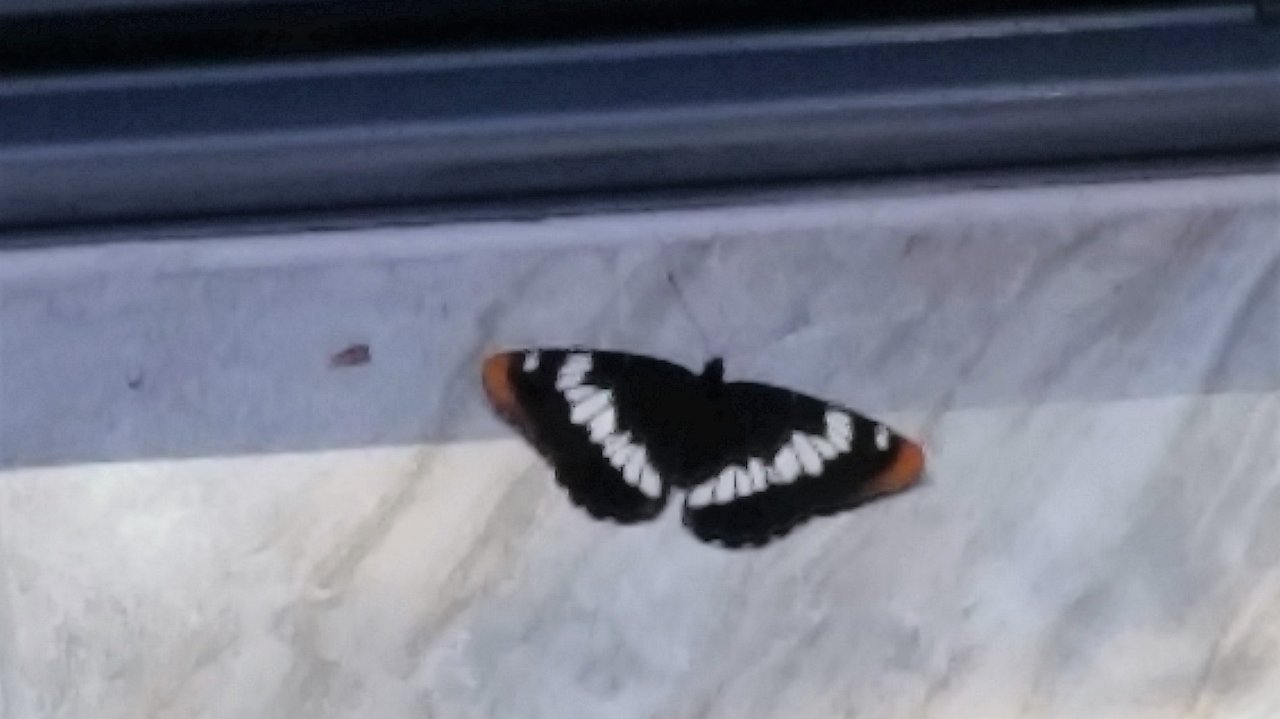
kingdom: Animalia
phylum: Arthropoda
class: Insecta
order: Lepidoptera
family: Nymphalidae
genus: Limenitis
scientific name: Limenitis lorquini
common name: Lorquin's Admiral
